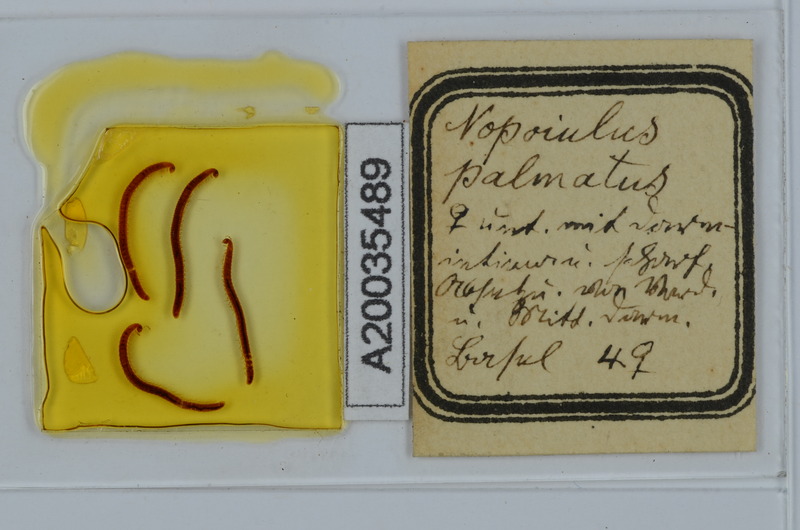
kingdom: Animalia
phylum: Arthropoda
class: Diplopoda
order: Julida
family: Blaniulidae
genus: Nopoiulus
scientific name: Nopoiulus palmatus
